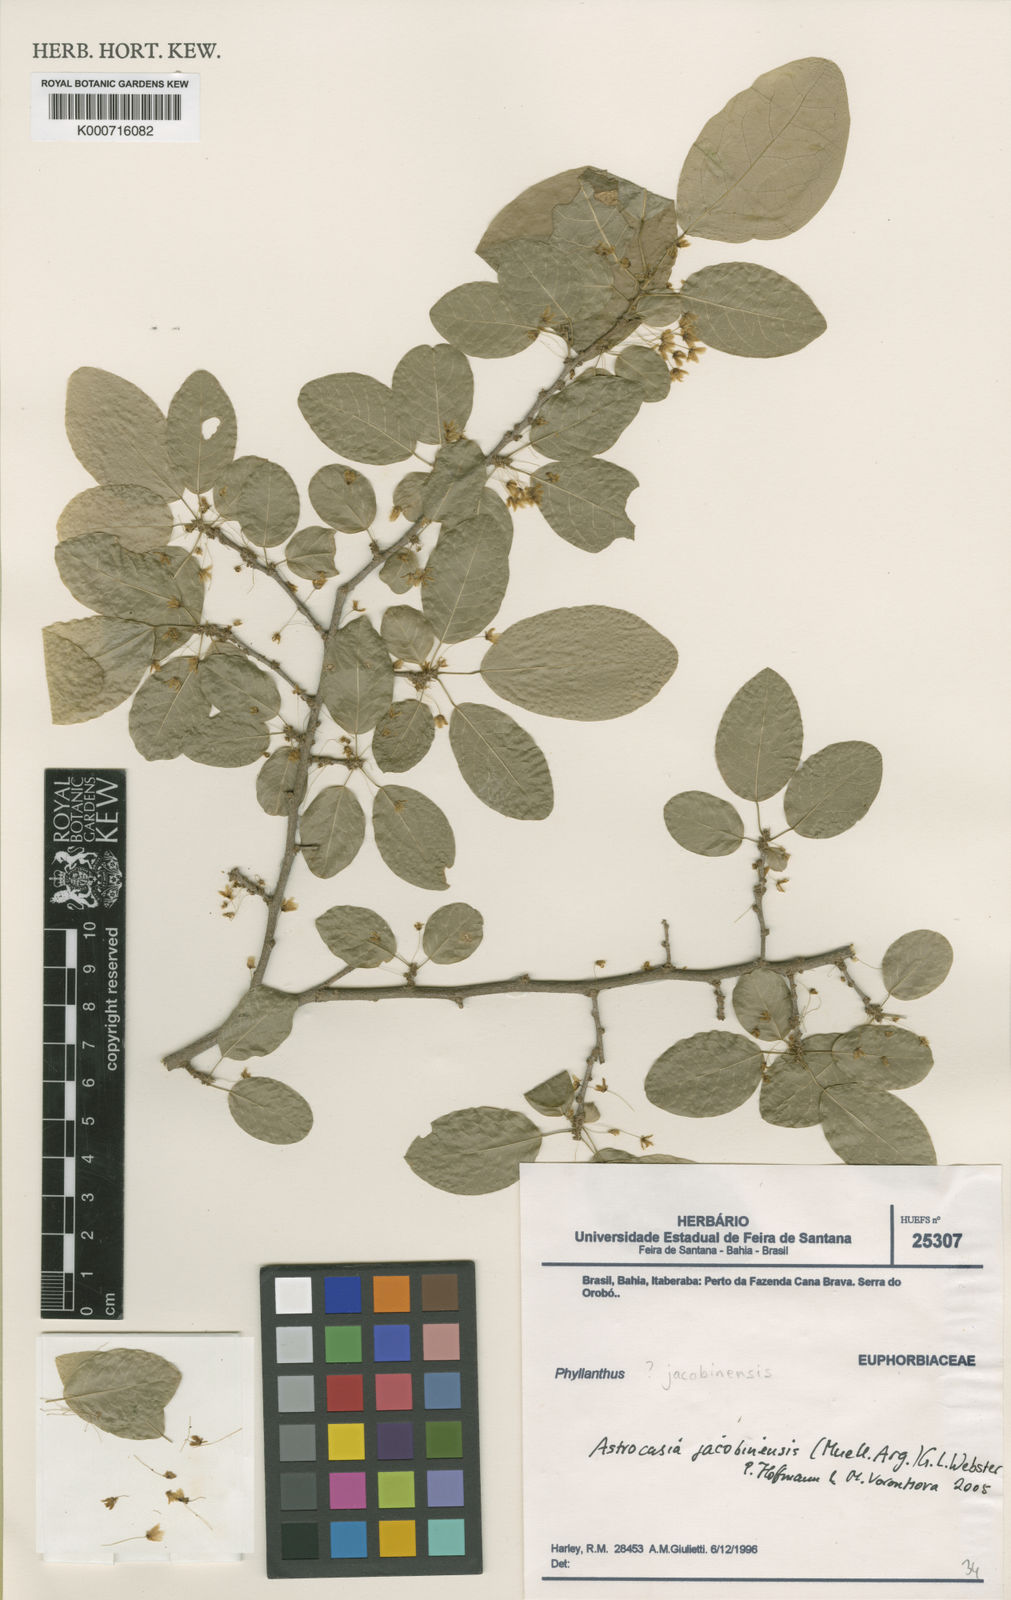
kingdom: Plantae
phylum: Tracheophyta
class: Magnoliopsida
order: Malpighiales
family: Phyllanthaceae
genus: Astrocasia
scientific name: Astrocasia
